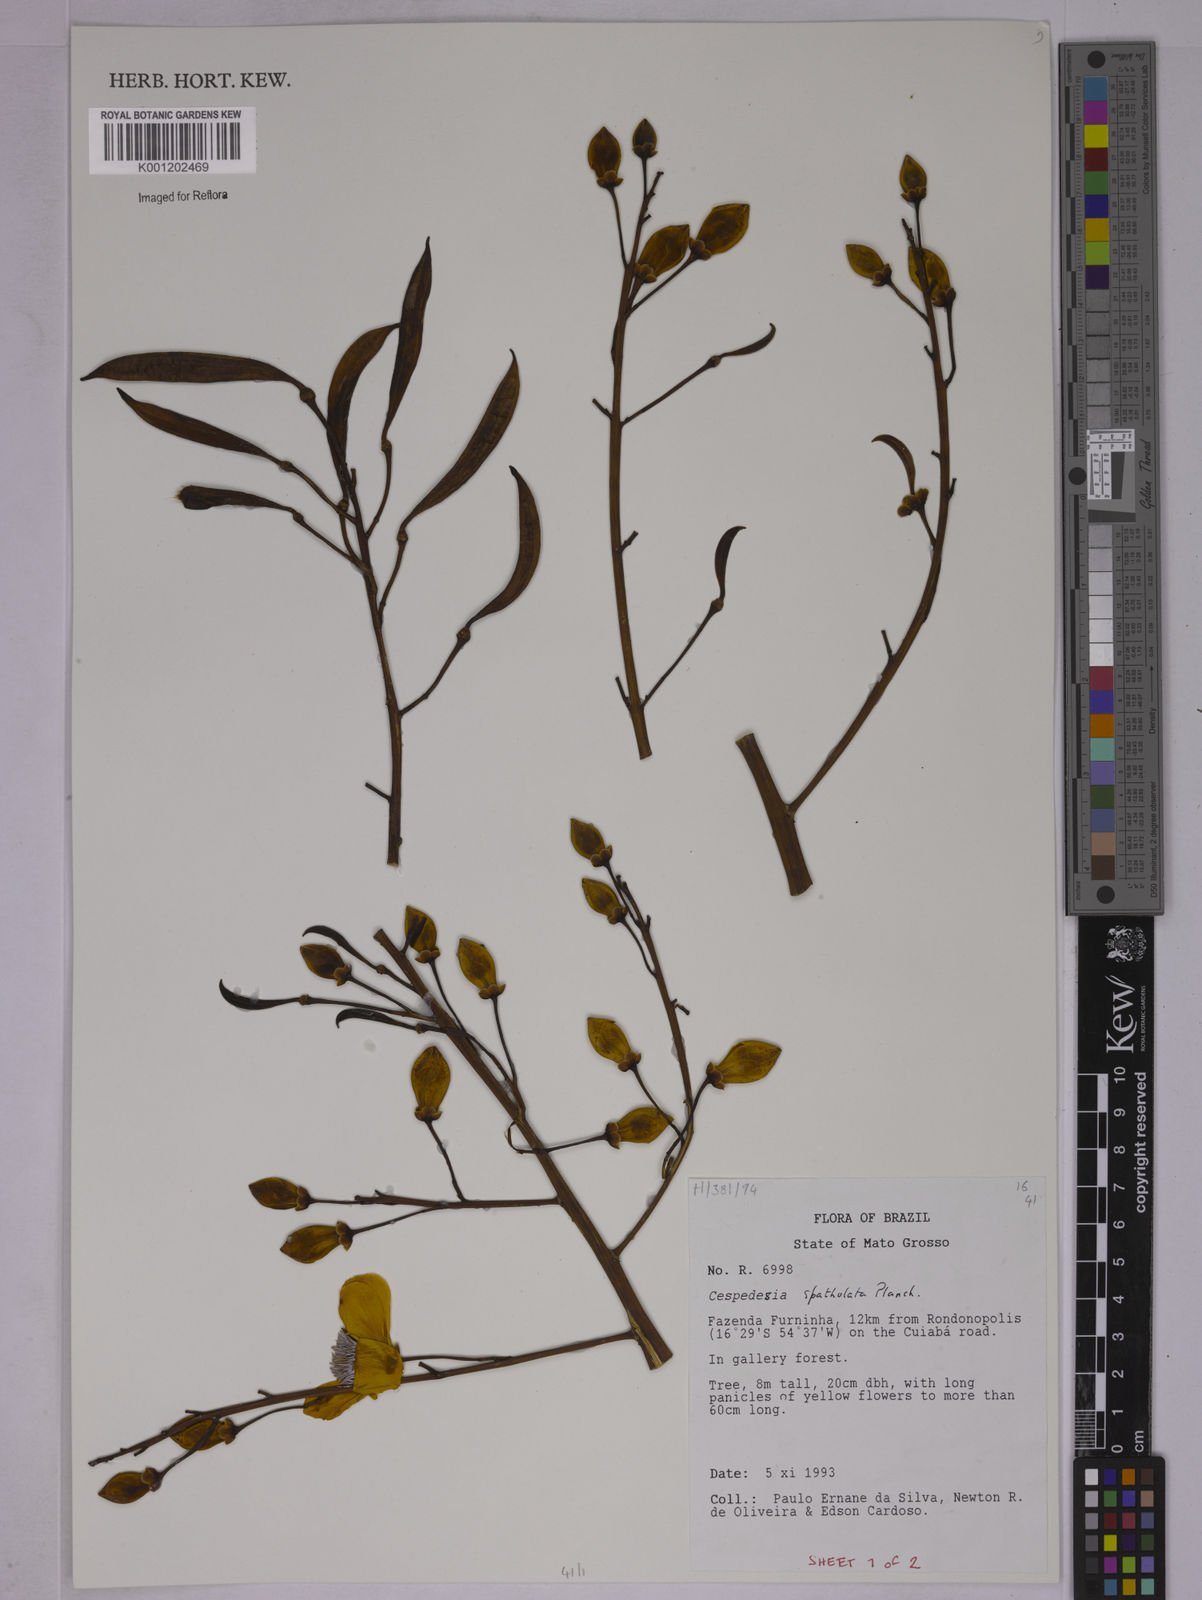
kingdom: Plantae
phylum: Tracheophyta
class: Magnoliopsida
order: Malpighiales
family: Ochnaceae
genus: Cespedesia
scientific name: Cespedesia spathulata
